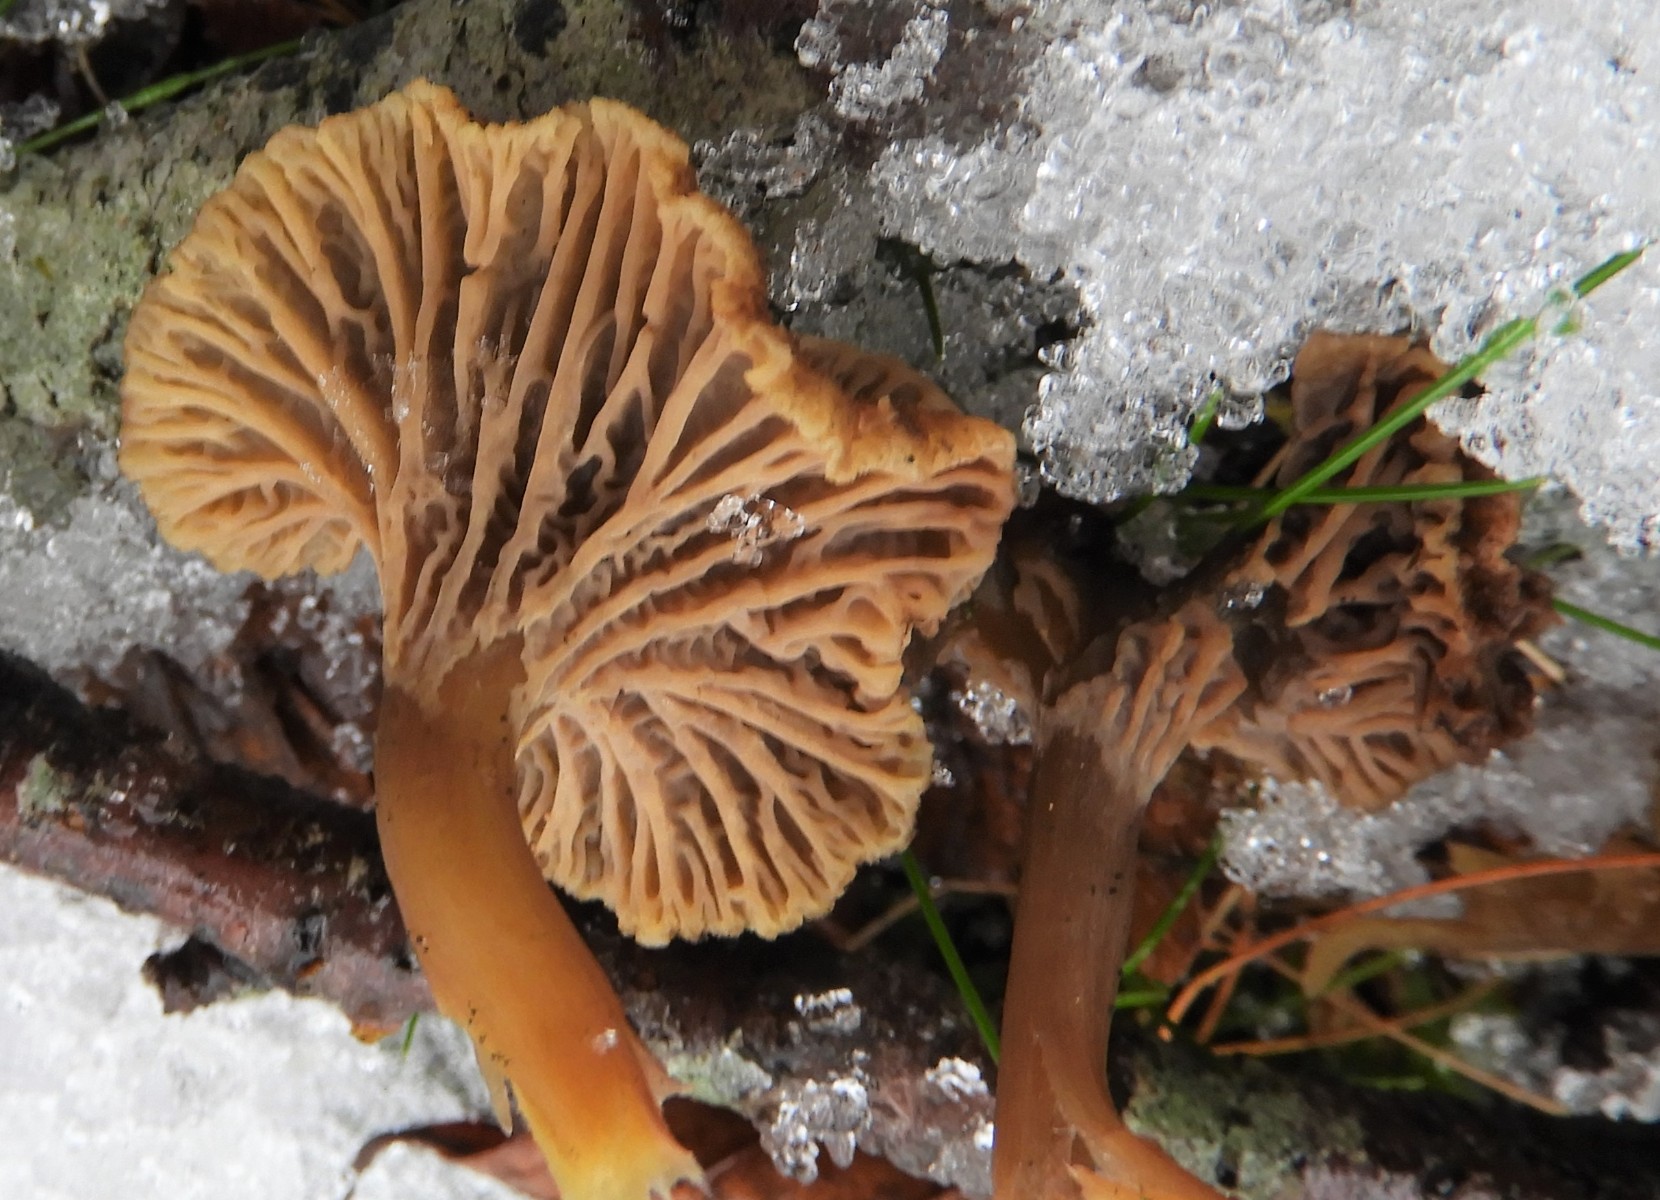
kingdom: Fungi
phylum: Basidiomycota
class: Agaricomycetes
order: Cantharellales
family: Hydnaceae
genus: Craterellus
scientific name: Craterellus tubaeformis
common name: tragt-kantarel
